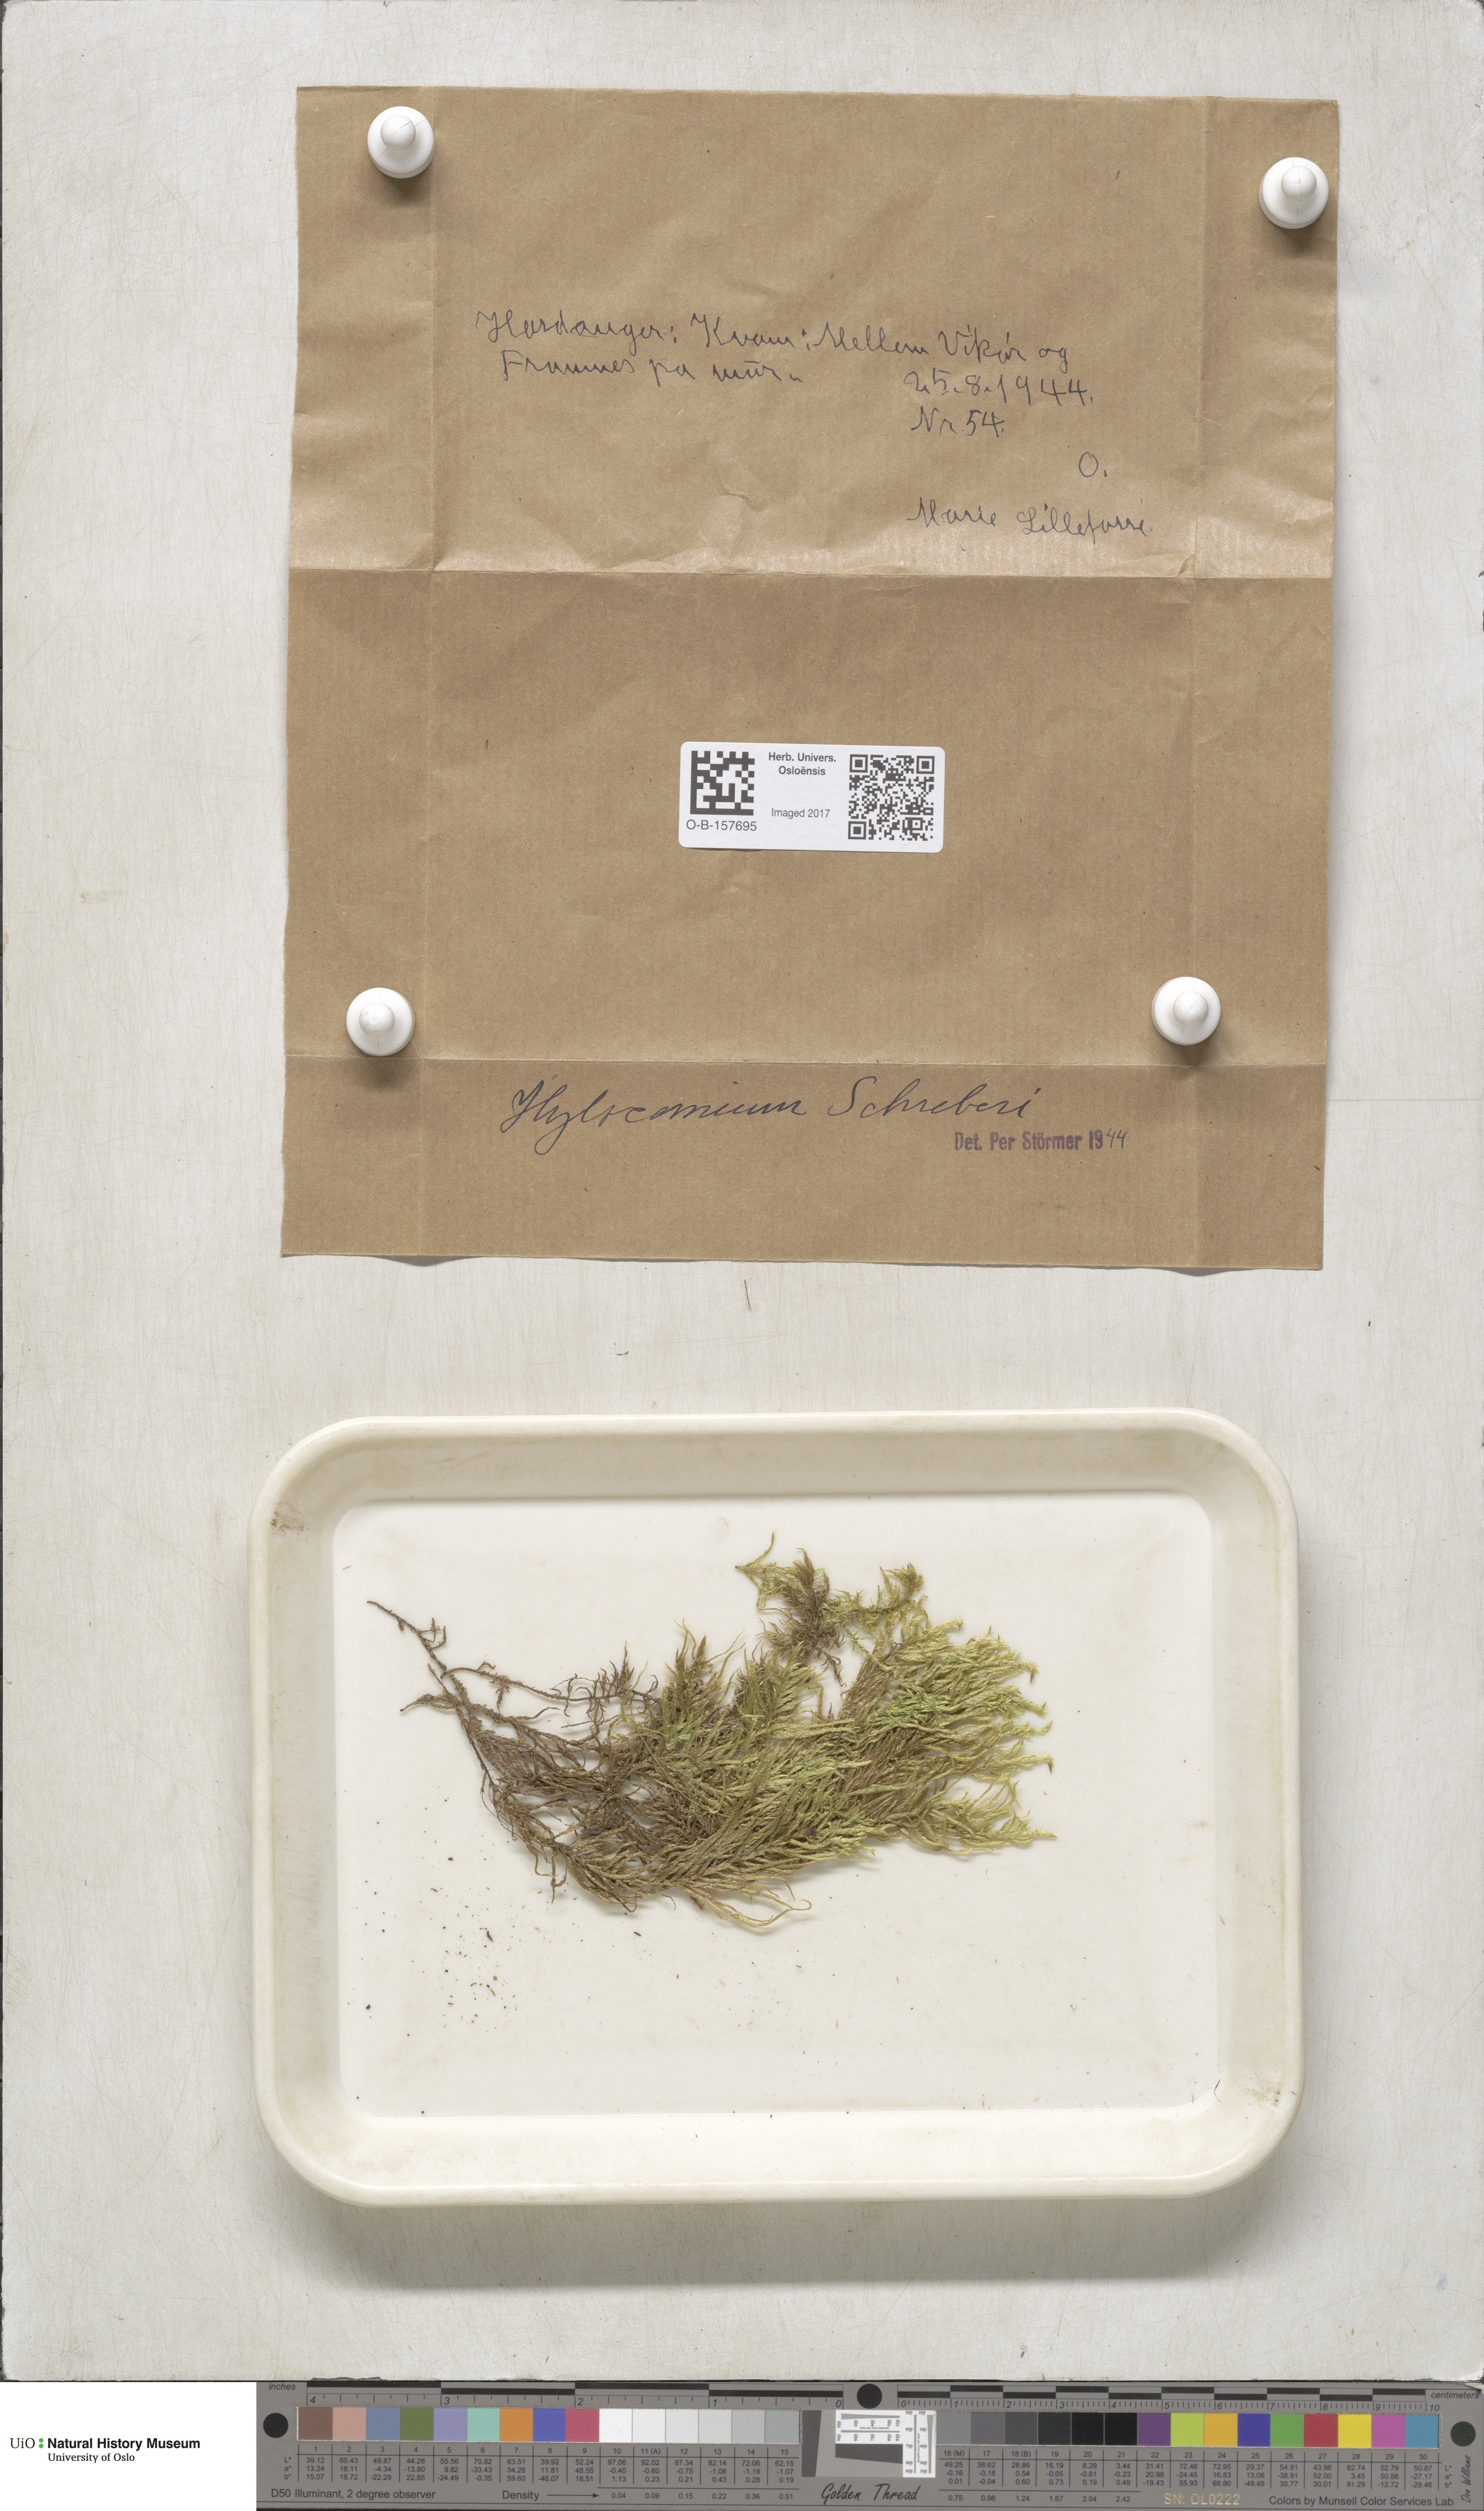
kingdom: Plantae
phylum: Bryophyta
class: Bryopsida
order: Hypnales
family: Hylocomiaceae
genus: Pleurozium
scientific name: Pleurozium schreberi
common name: Red-stemmed feather moss
